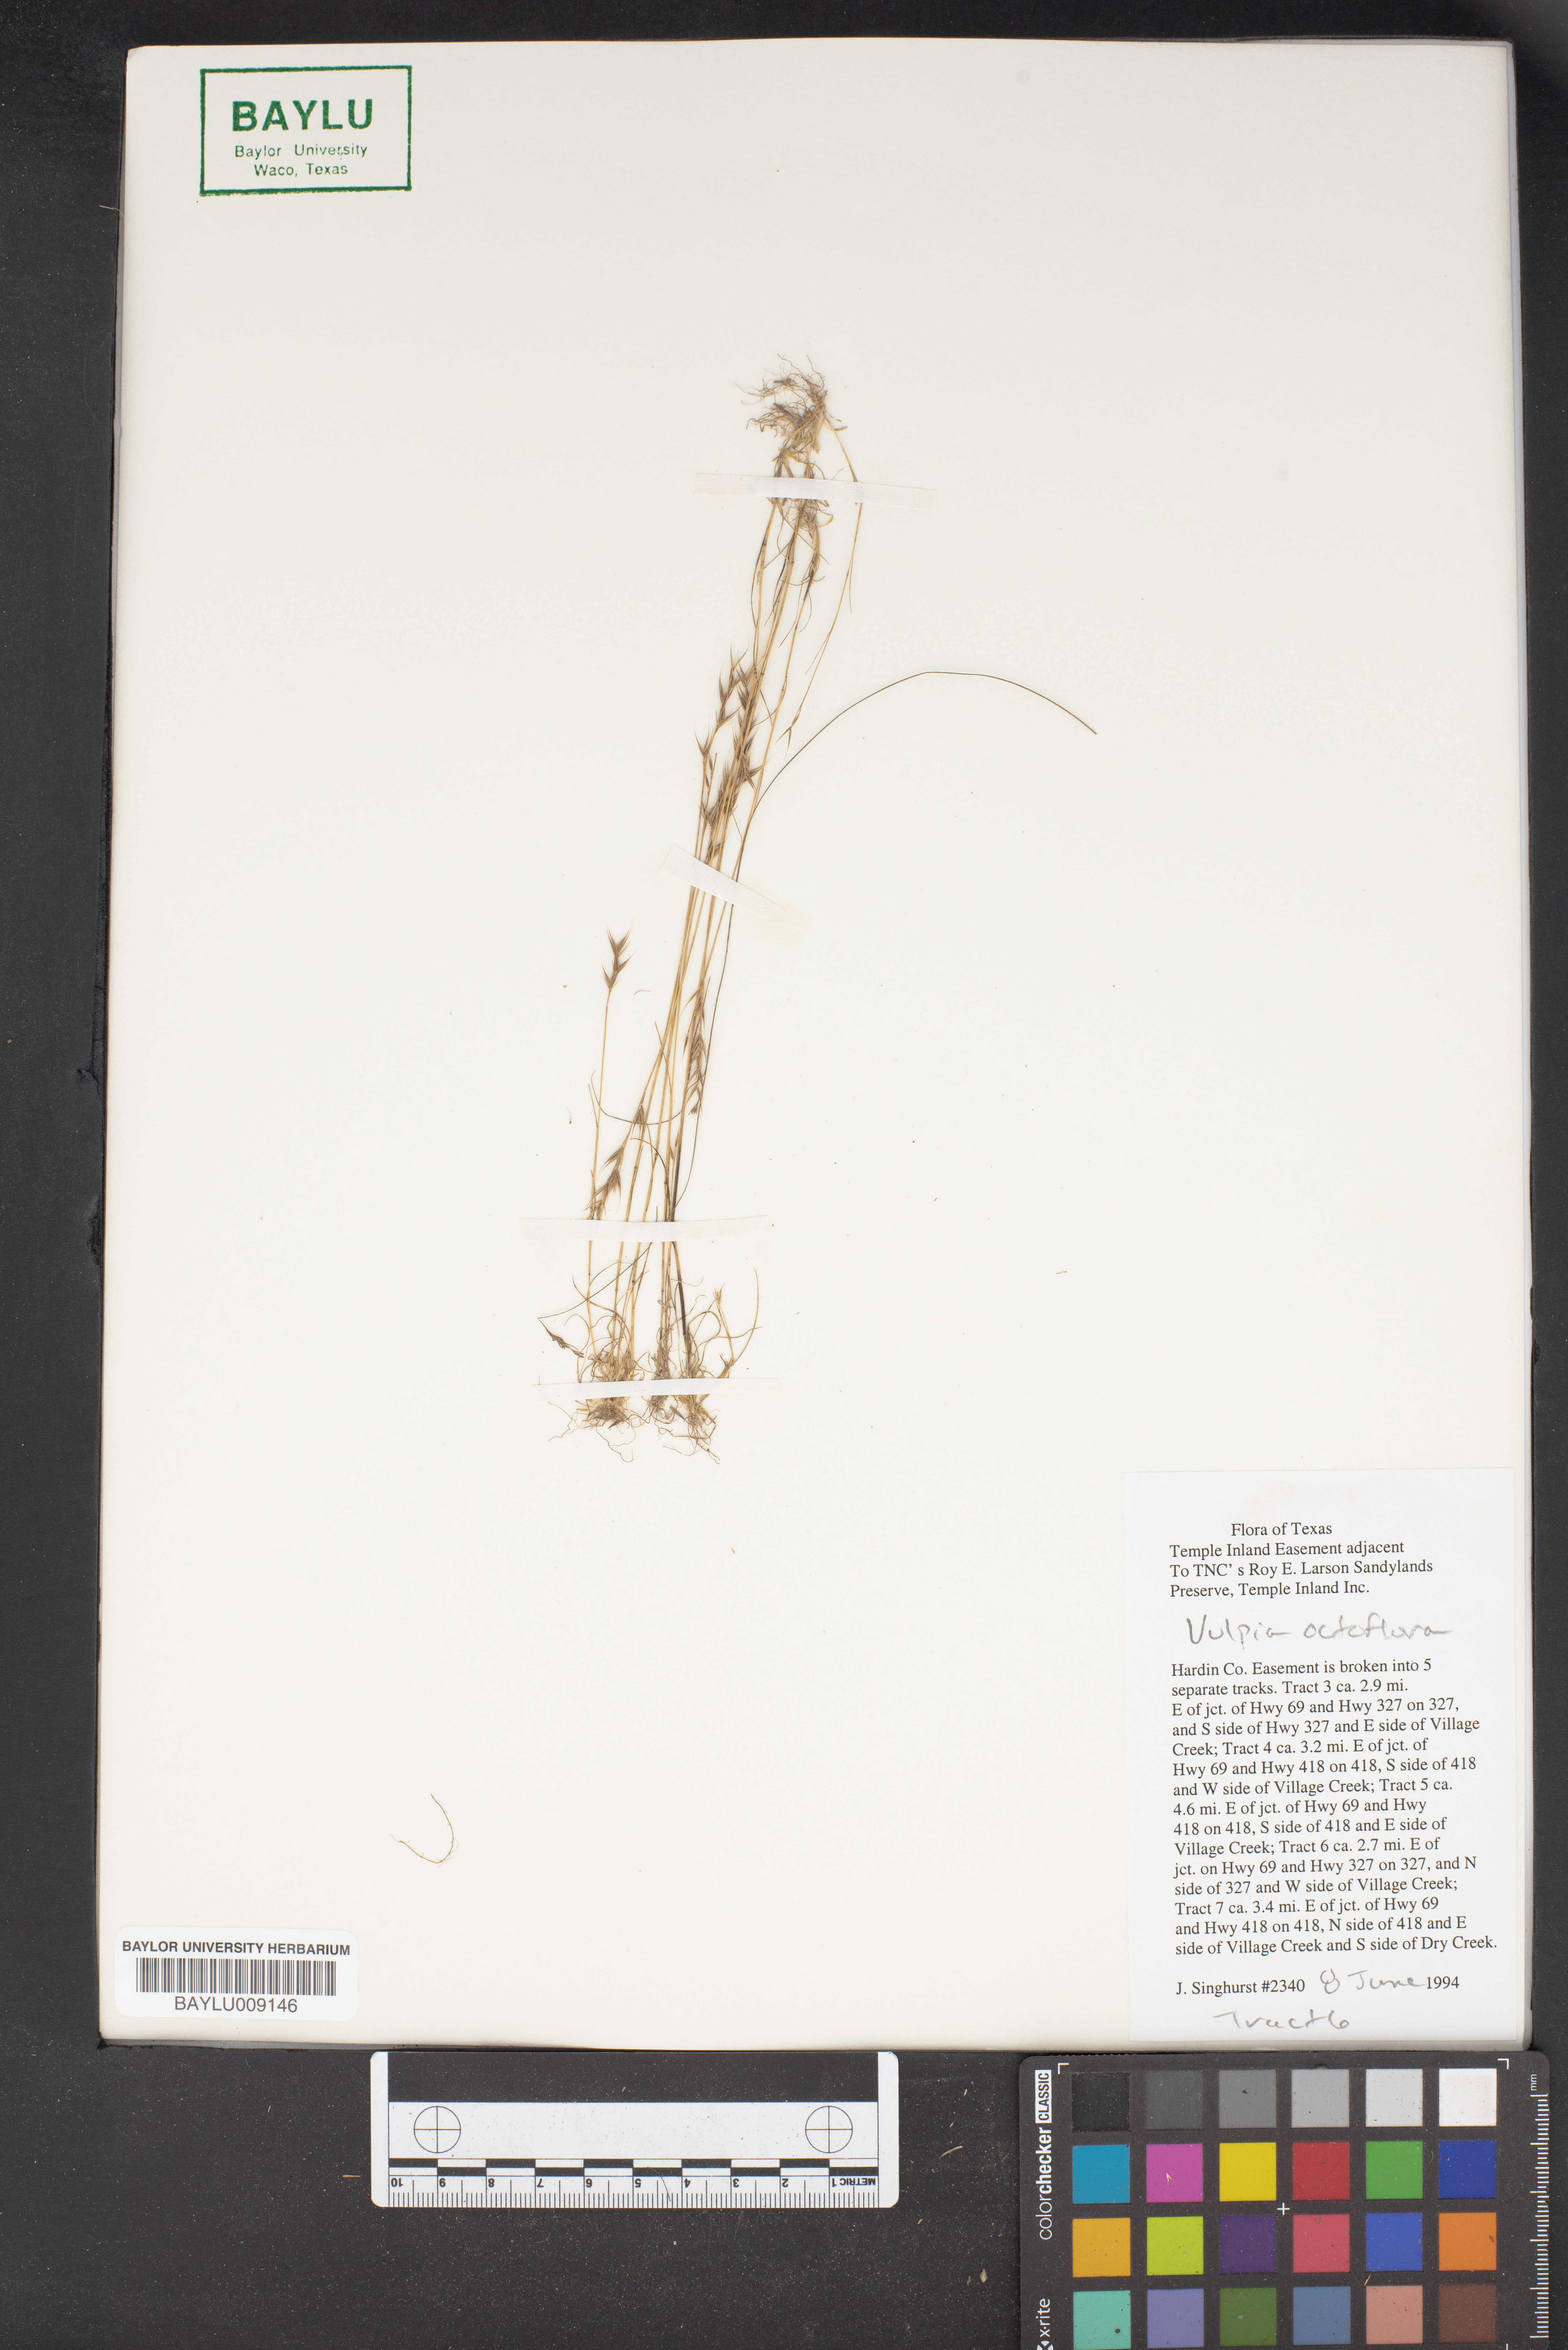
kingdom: Plantae
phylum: Tracheophyta
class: Liliopsida
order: Poales
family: Poaceae
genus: Festuca
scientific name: Festuca octoflora
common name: Sixweeks grass
